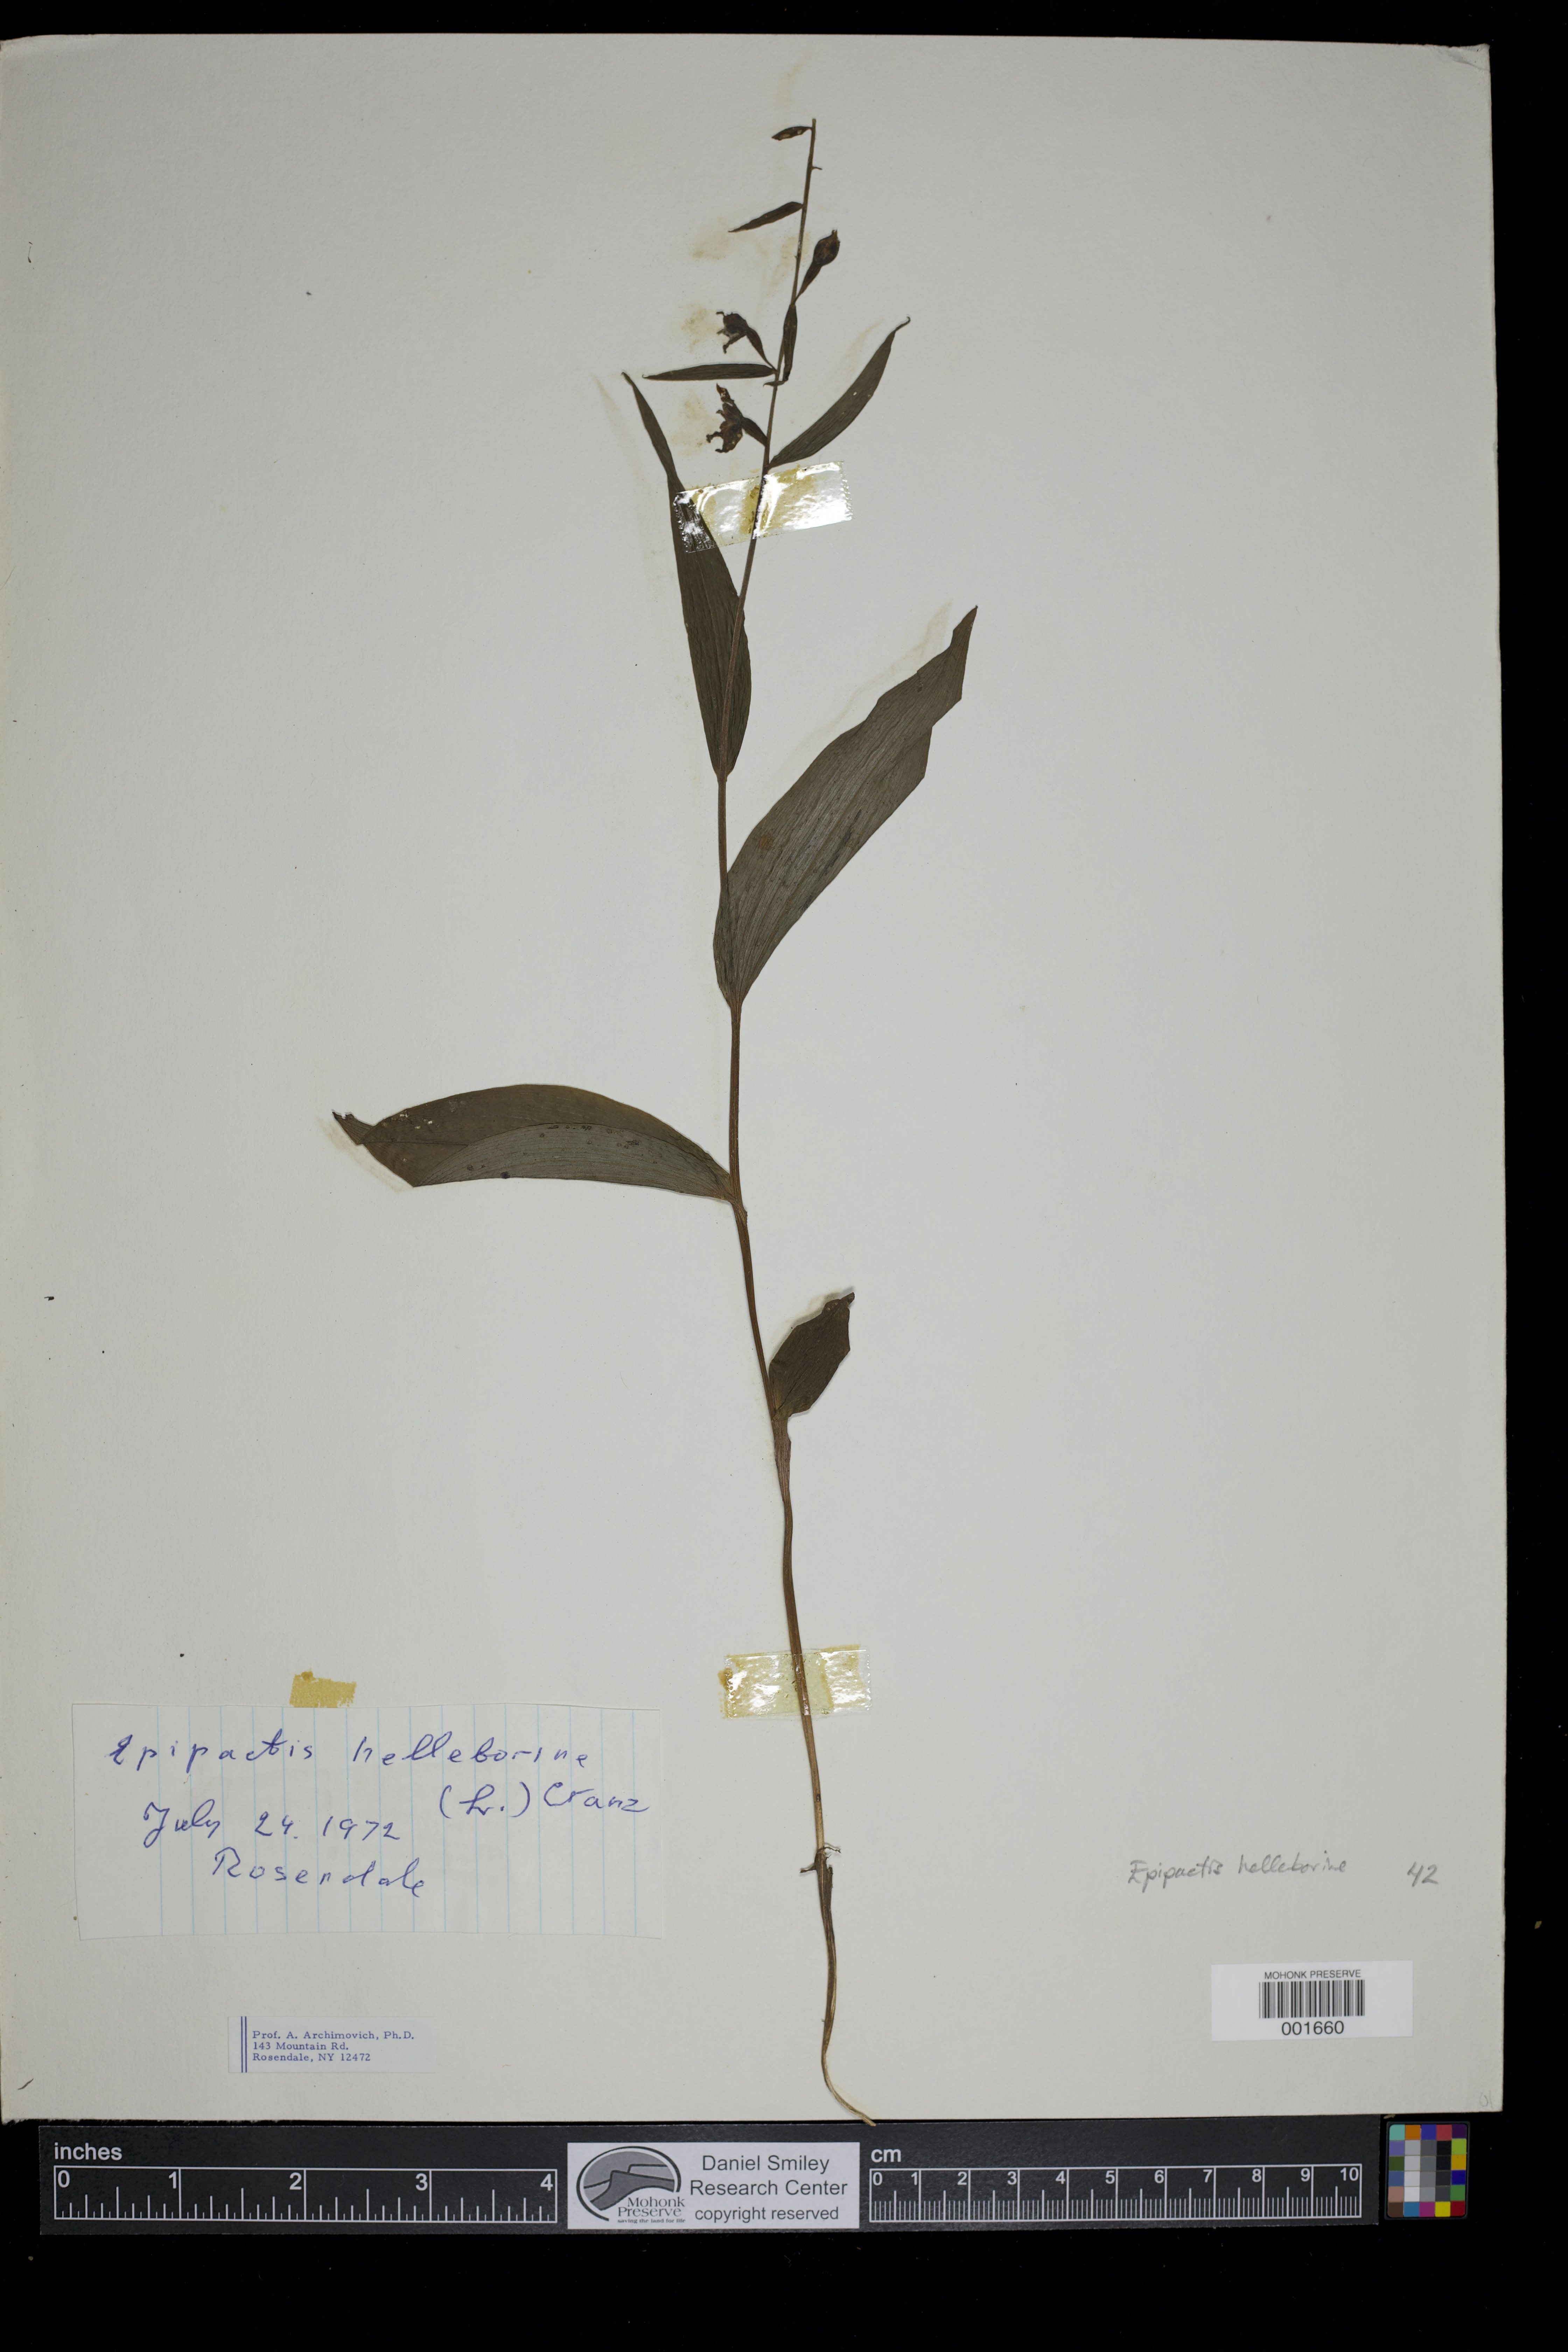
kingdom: Plantae
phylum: Tracheophyta
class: Liliopsida
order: Asparagales
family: Orchidaceae
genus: Epipactis
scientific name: Epipactis helleborine
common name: Broad-leaved helleborine
